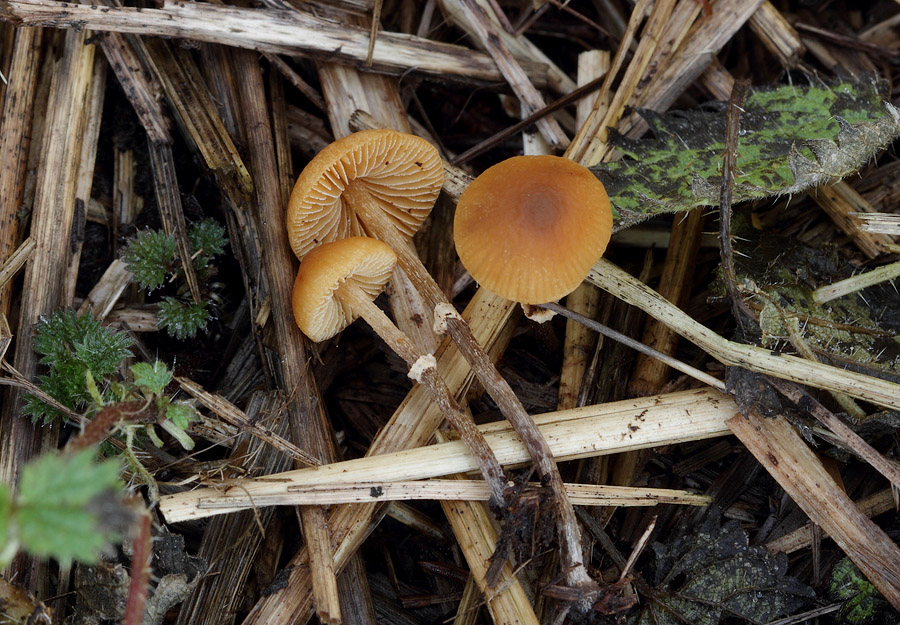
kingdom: Fungi
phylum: Basidiomycota
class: Agaricomycetes
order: Agaricales
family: Bolbitiaceae
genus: Pholiotina
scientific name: Pholiotina teneroides
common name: tosporet dansehat
